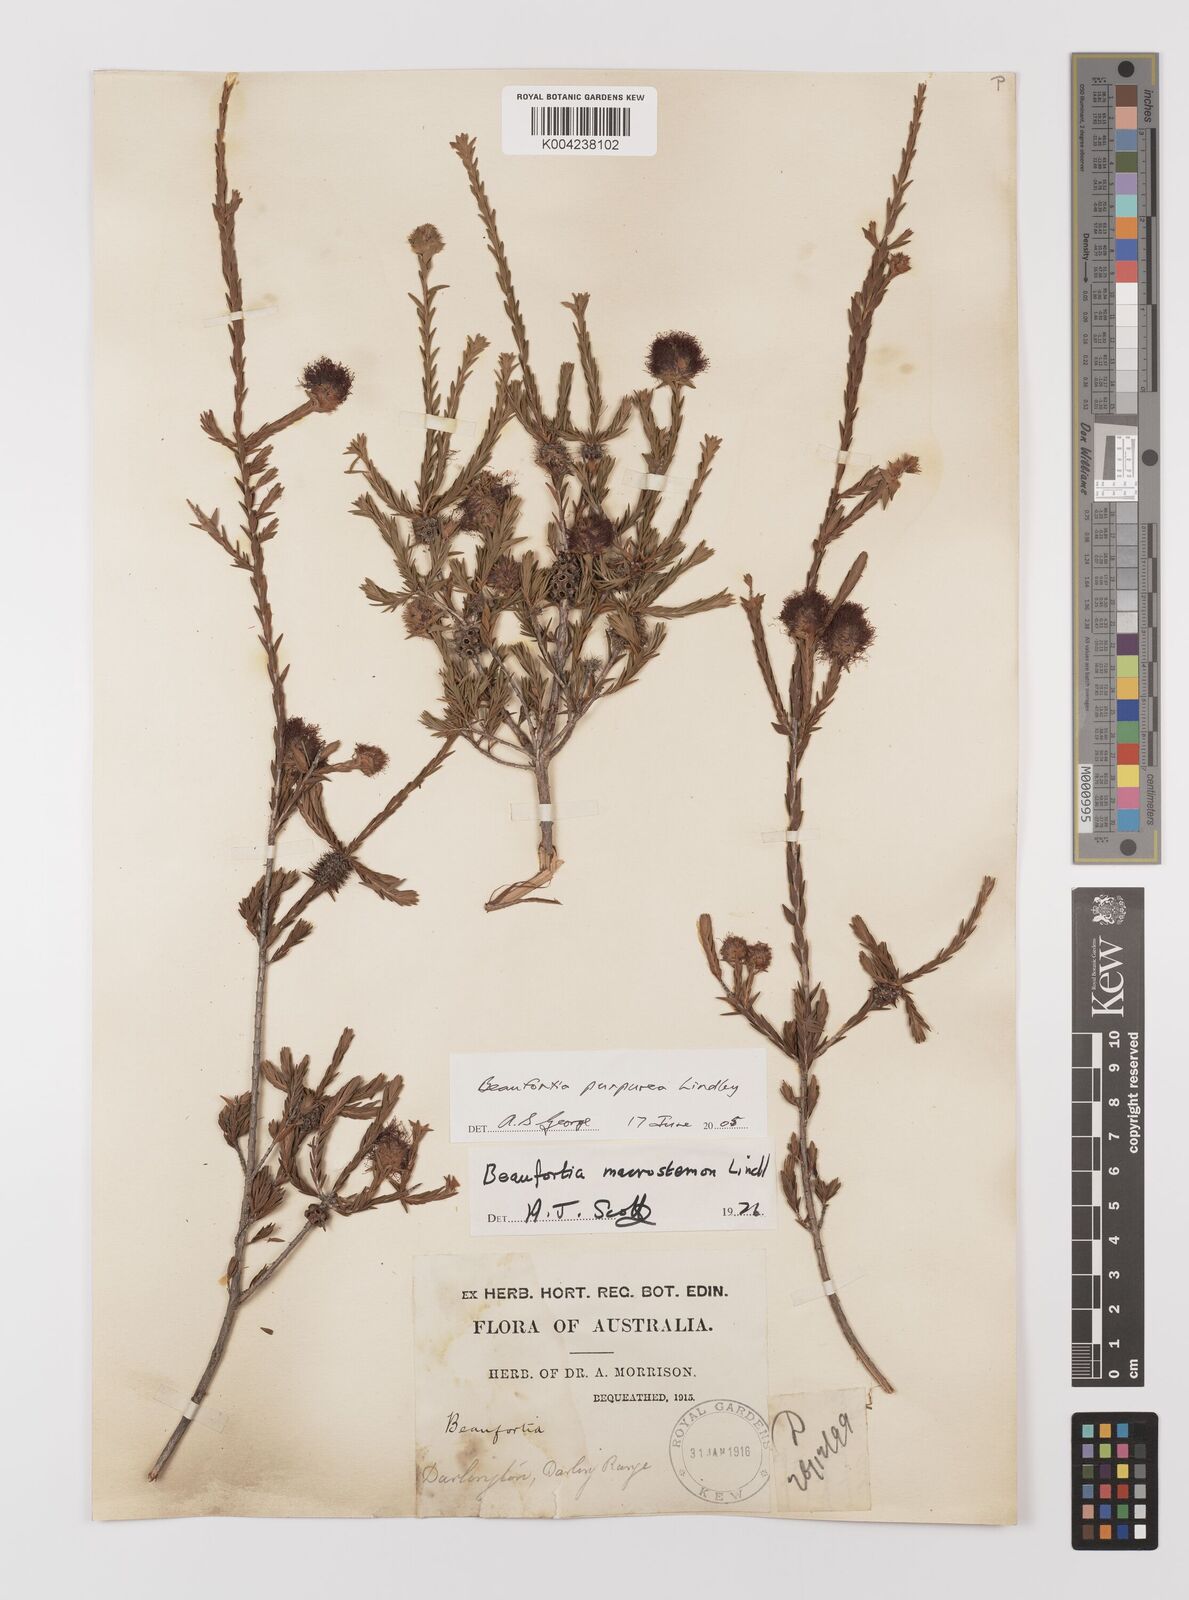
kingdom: Plantae
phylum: Tracheophyta
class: Magnoliopsida
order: Myrtales
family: Myrtaceae
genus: Melaleuca
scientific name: Melaleuca purpurea
